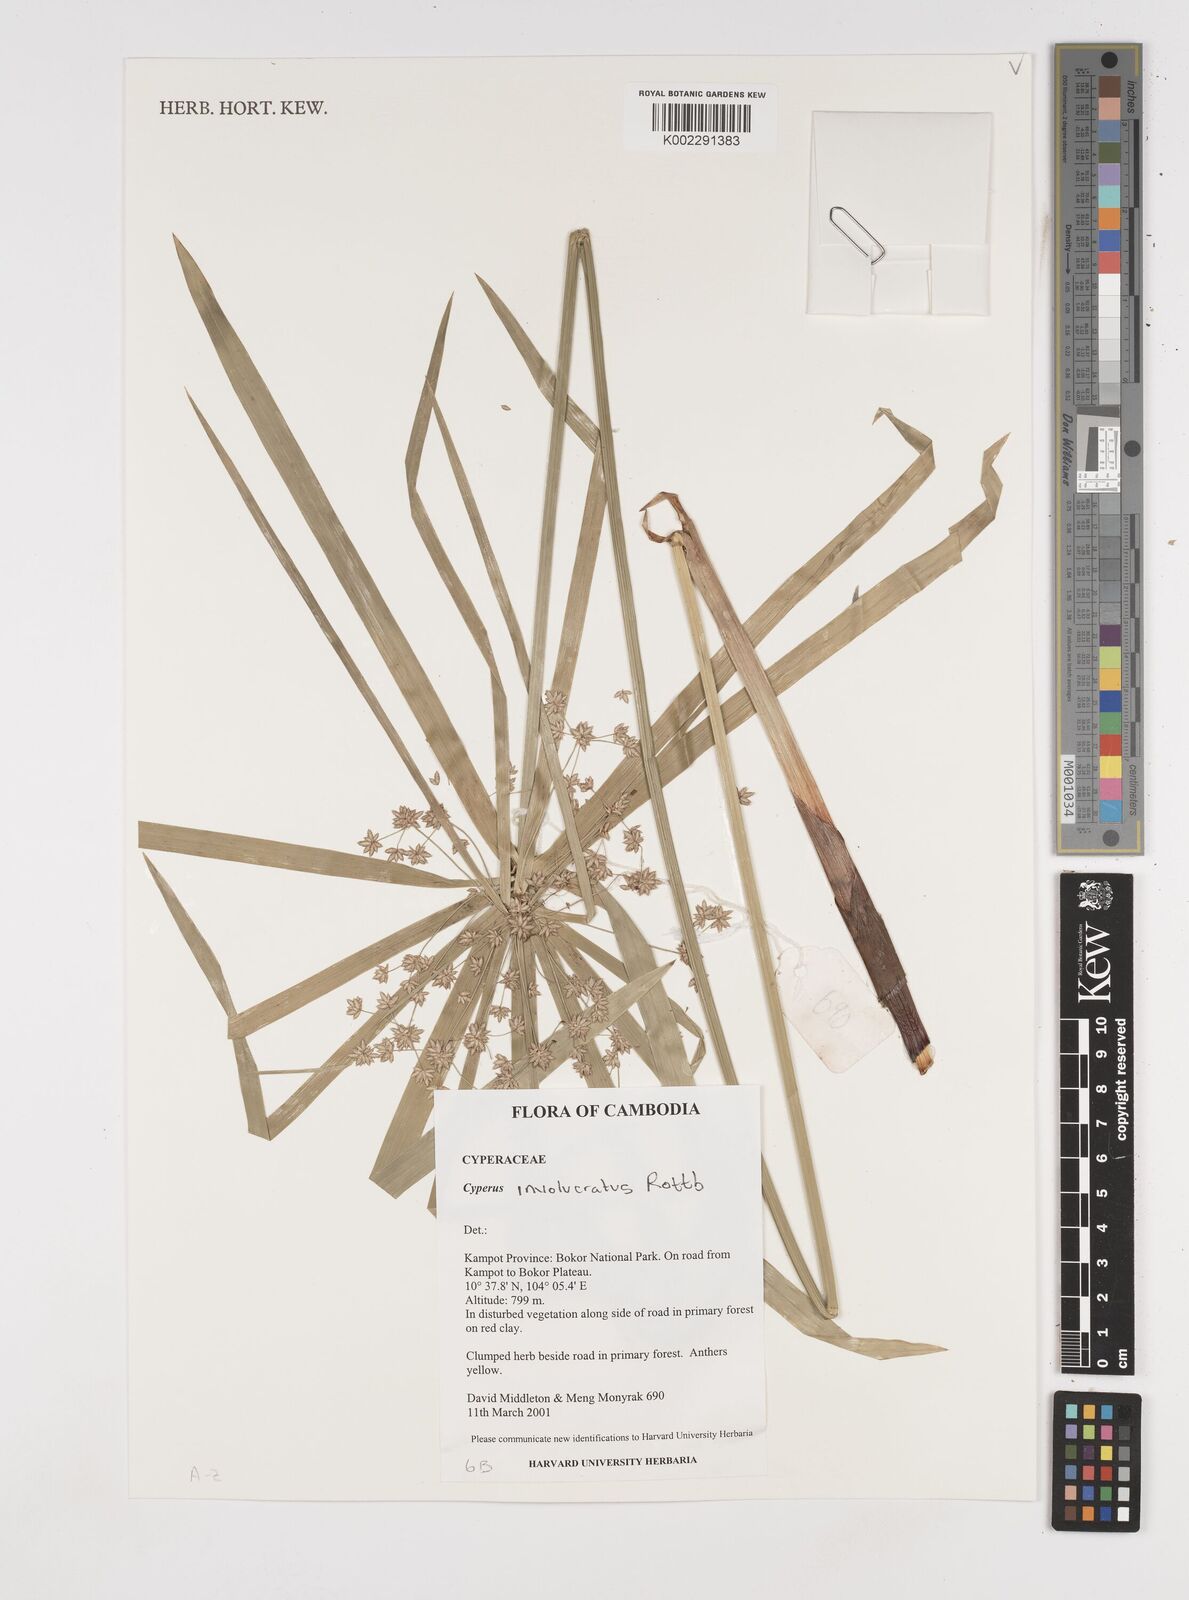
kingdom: Plantae
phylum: Tracheophyta
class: Liliopsida
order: Poales
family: Cyperaceae
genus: Cyperus
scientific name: Cyperus alternifolius
